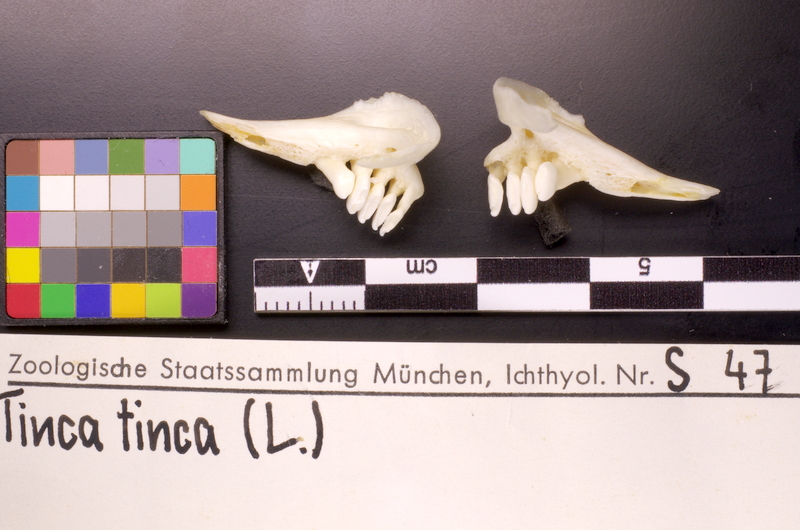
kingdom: Animalia
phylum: Chordata
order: Cypriniformes
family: Cyprinidae
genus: Tinca
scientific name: Tinca tinca
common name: Tench
